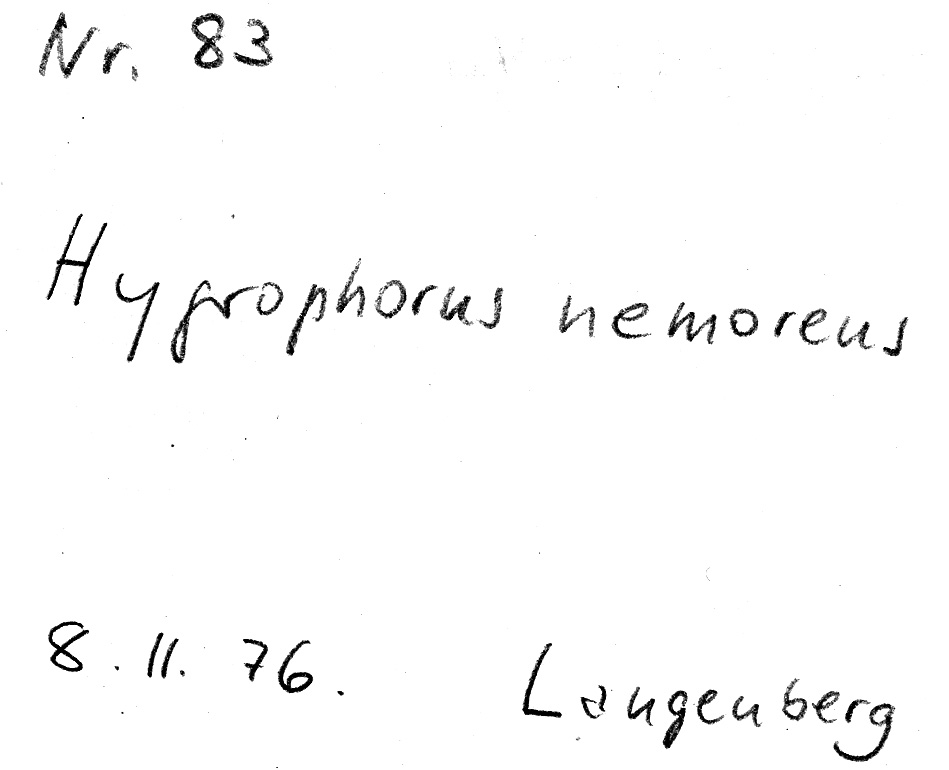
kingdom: Fungi
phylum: Basidiomycota
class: Agaricomycetes
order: Agaricales
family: Hygrophoraceae
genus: Hygrophorus
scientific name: Hygrophorus nemoreus
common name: Oak woodwax
